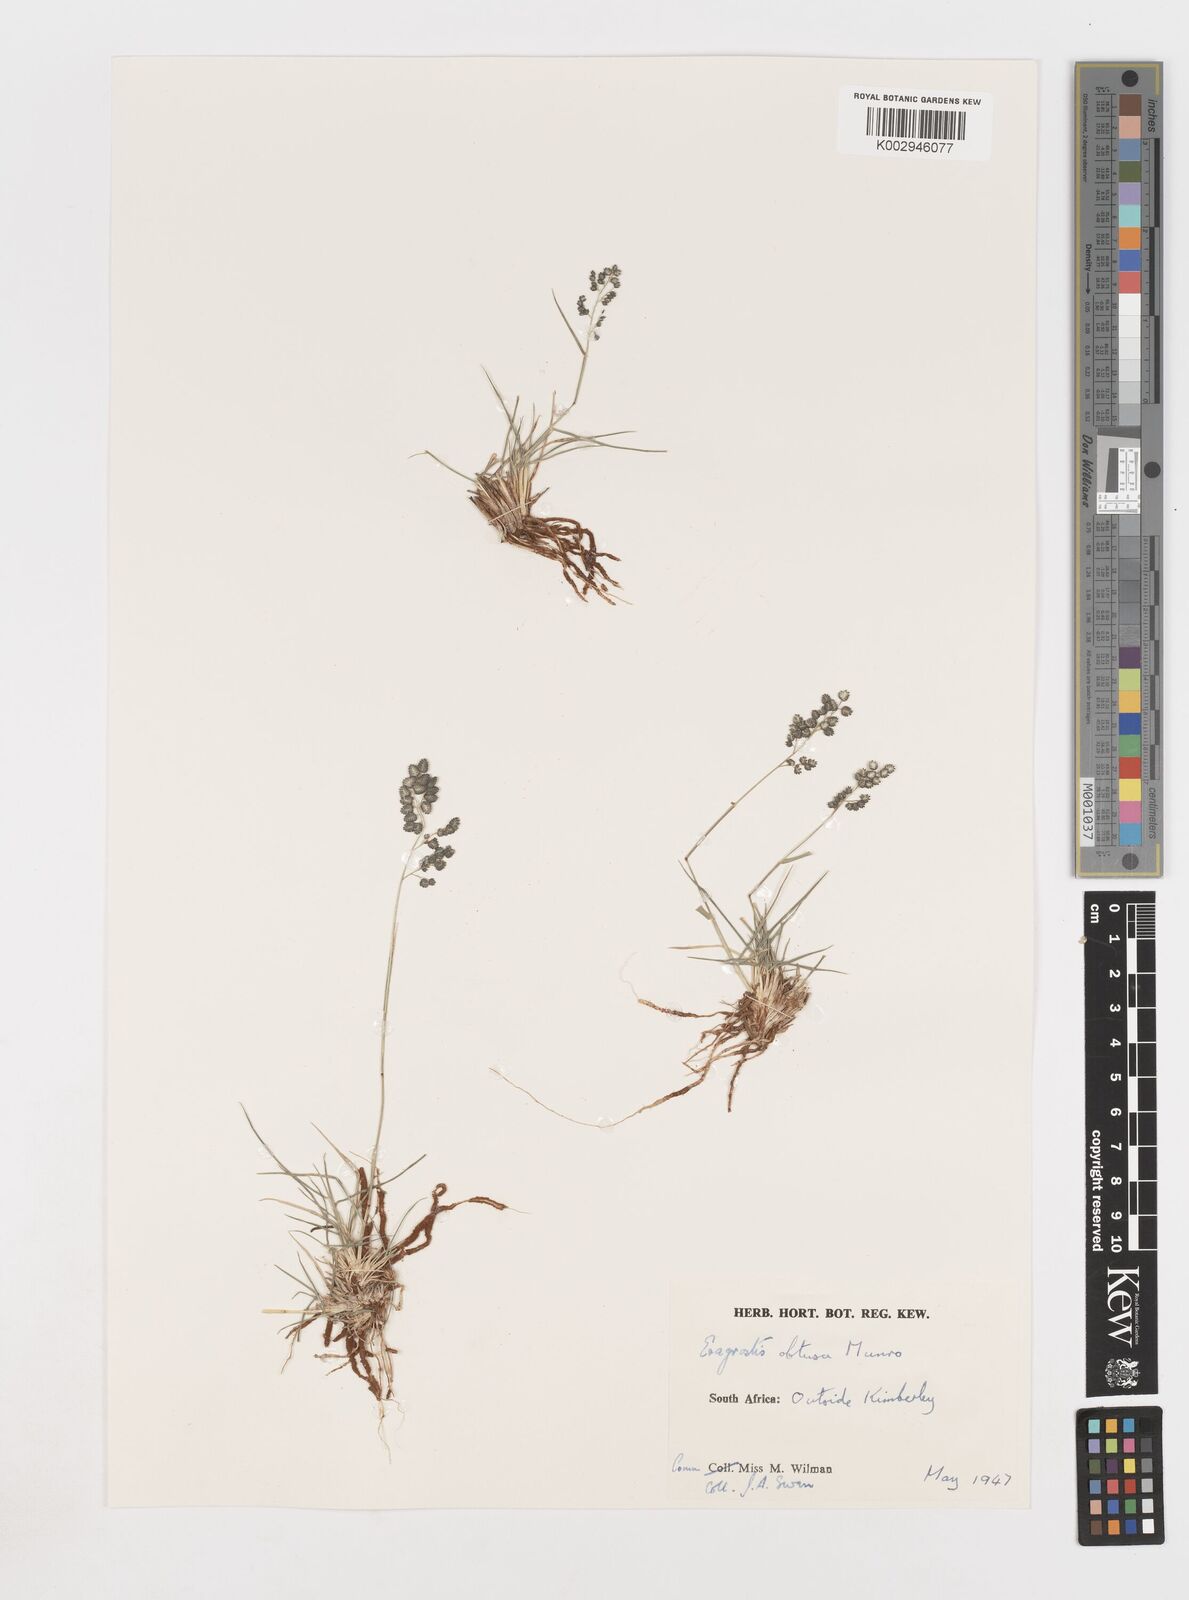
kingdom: Plantae
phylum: Tracheophyta
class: Liliopsida
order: Poales
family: Poaceae
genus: Eragrostis
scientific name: Eragrostis obtusa
